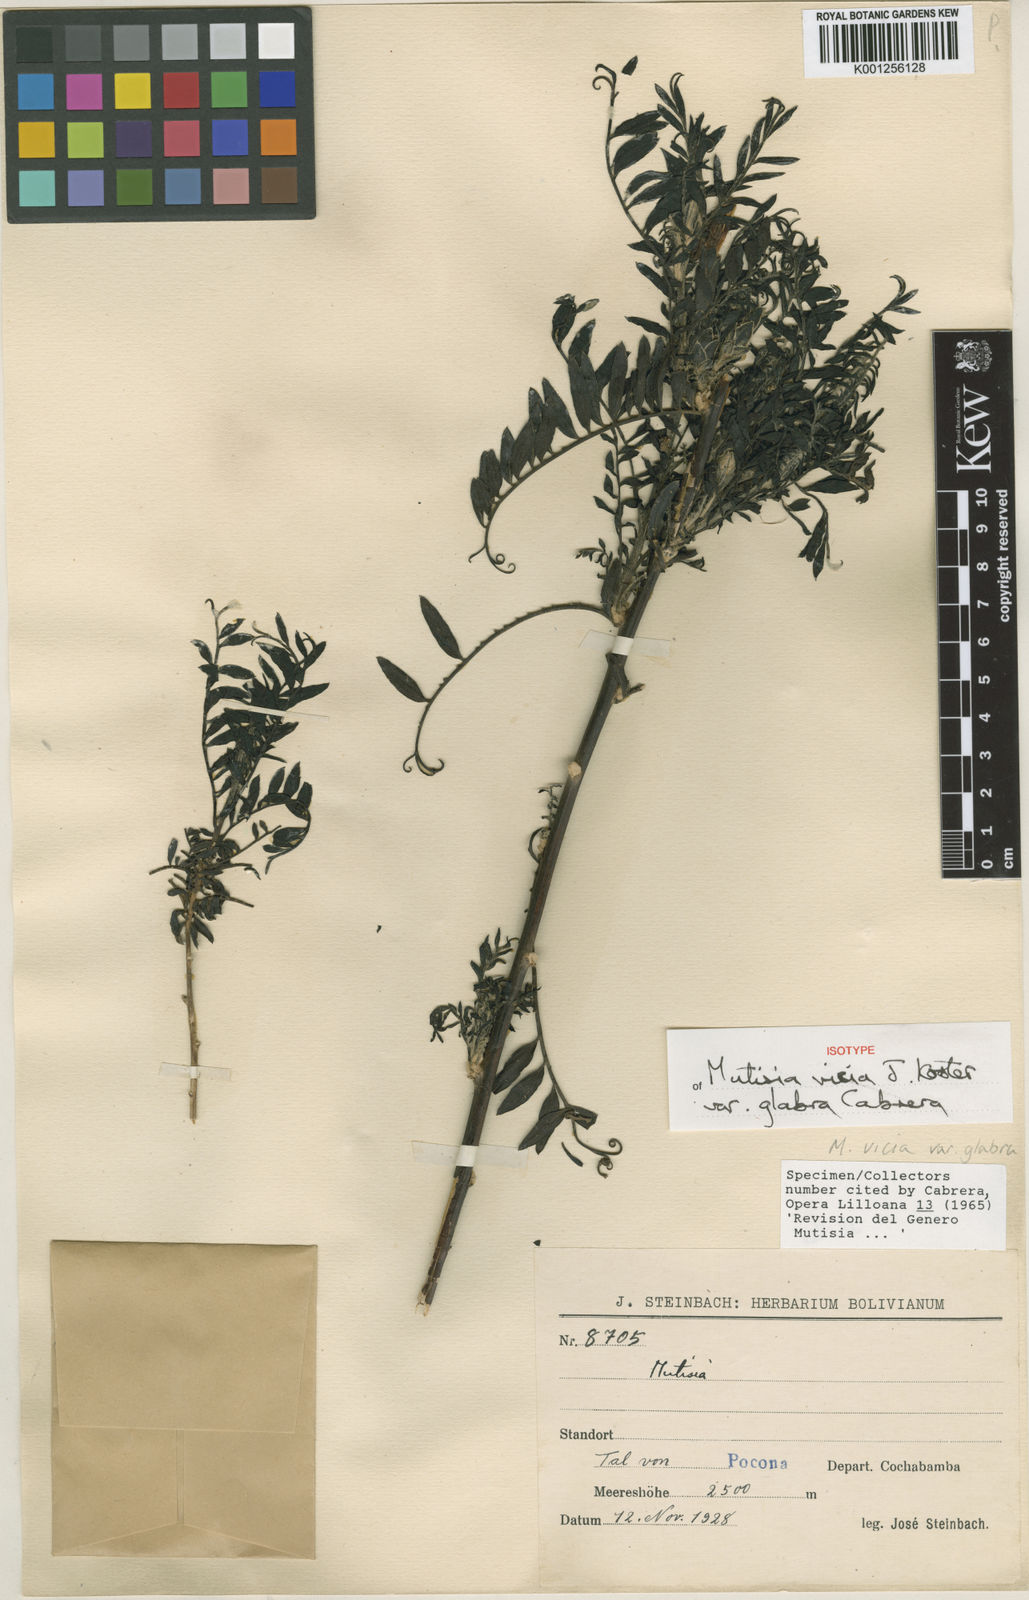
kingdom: Plantae
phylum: Tracheophyta
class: Magnoliopsida
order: Asterales
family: Asteraceae
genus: Mutisia
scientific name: Mutisia vicia
